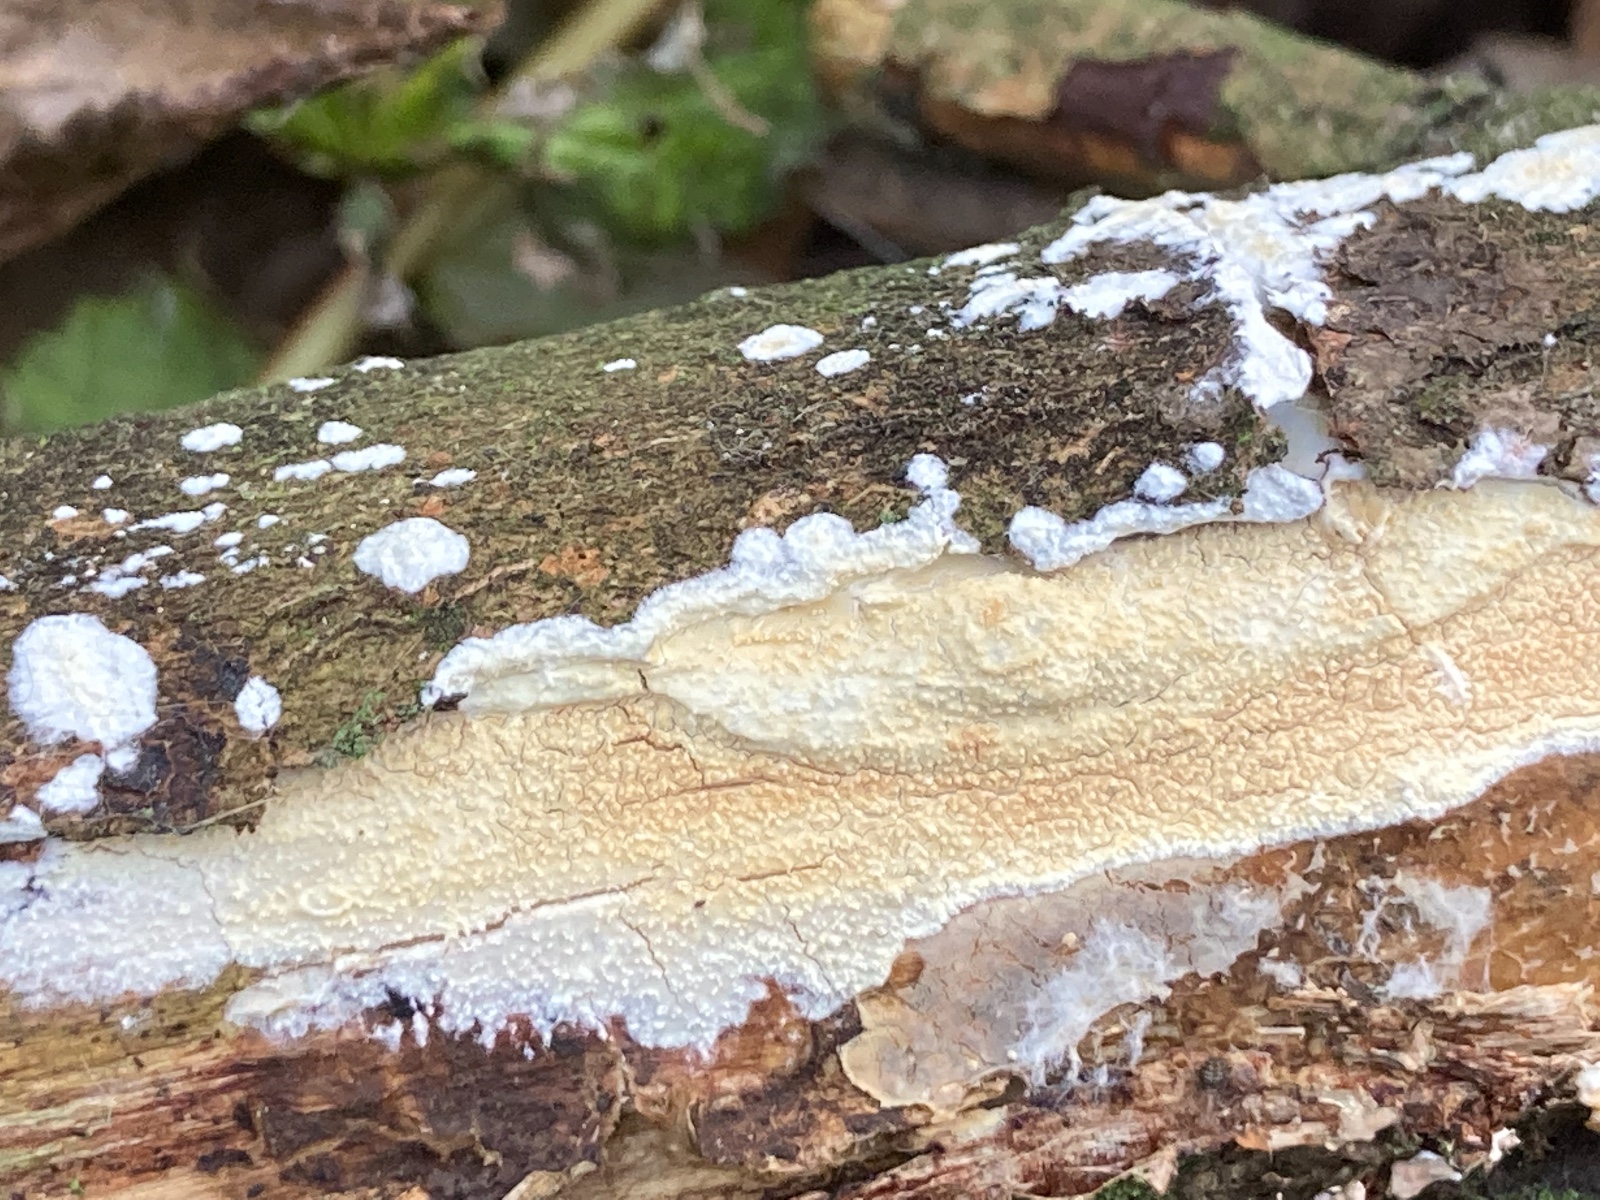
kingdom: Fungi
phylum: Basidiomycota
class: Agaricomycetes
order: Corticiales
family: Corticiaceae
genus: Lyomyces
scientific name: Lyomyces crustosus
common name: vortet hyldehinde
